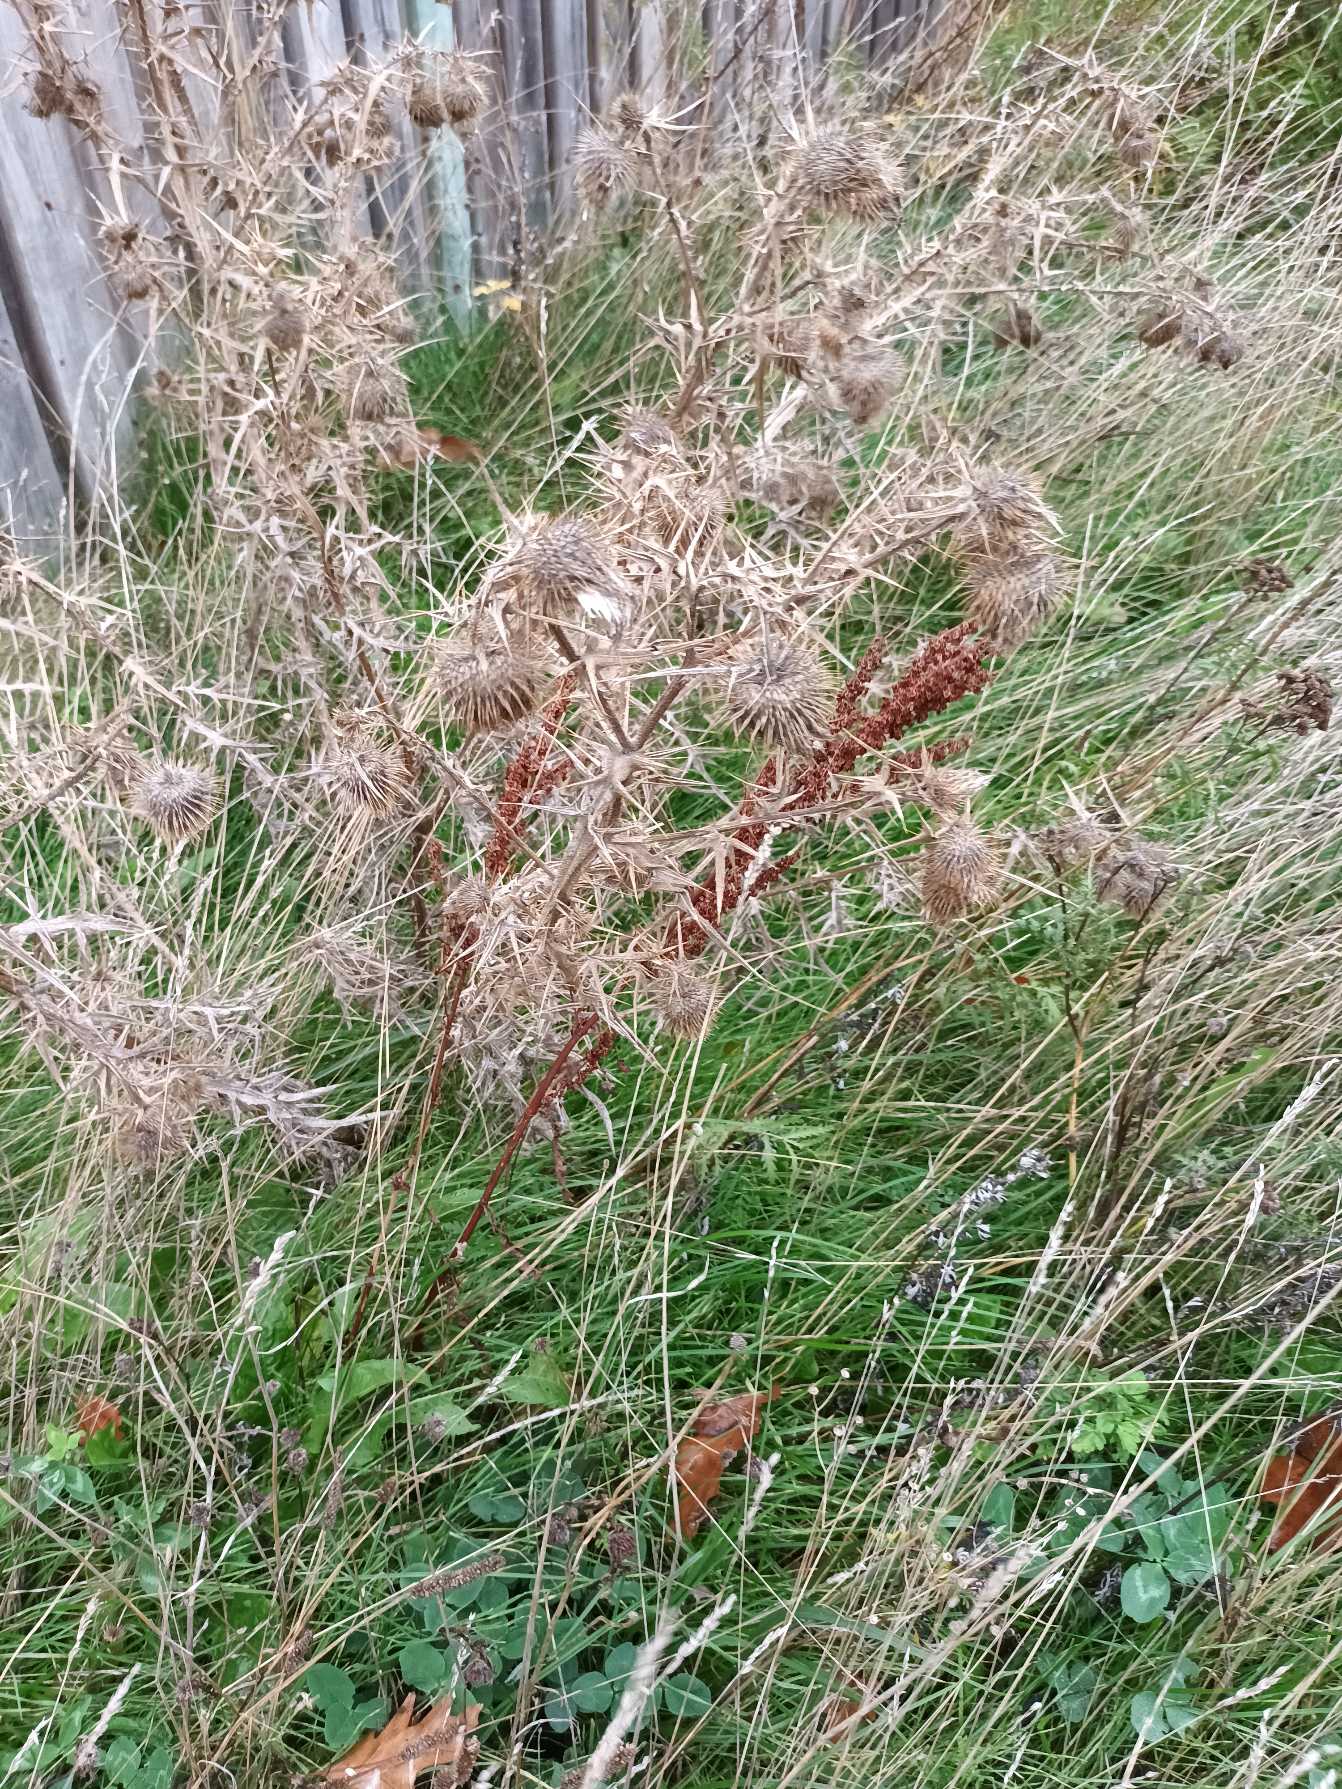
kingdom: Plantae
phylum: Tracheophyta
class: Magnoliopsida
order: Asterales
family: Asteraceae
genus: Cirsium
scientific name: Cirsium vulgare
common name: Horse-tidsel
